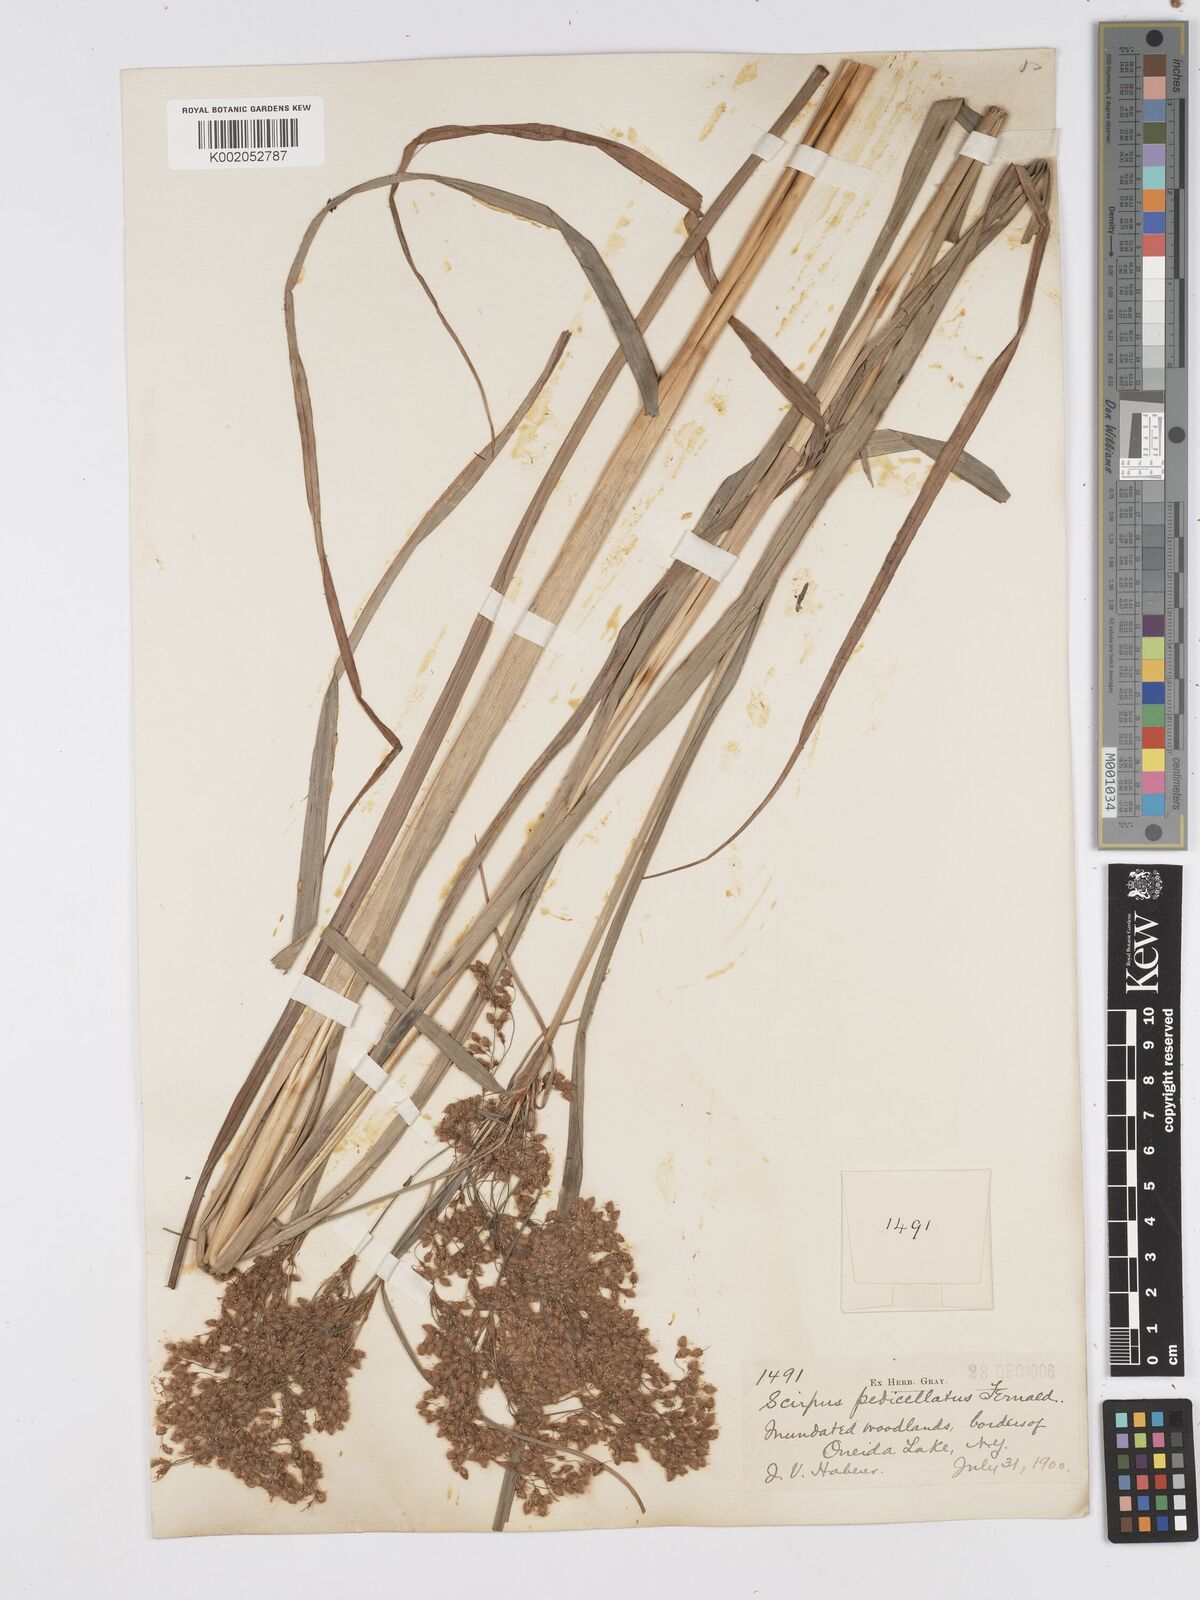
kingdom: Plantae
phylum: Tracheophyta
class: Liliopsida
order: Poales
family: Cyperaceae
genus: Scirpus
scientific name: Scirpus cyperinus
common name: Black-sheathed bulrush
